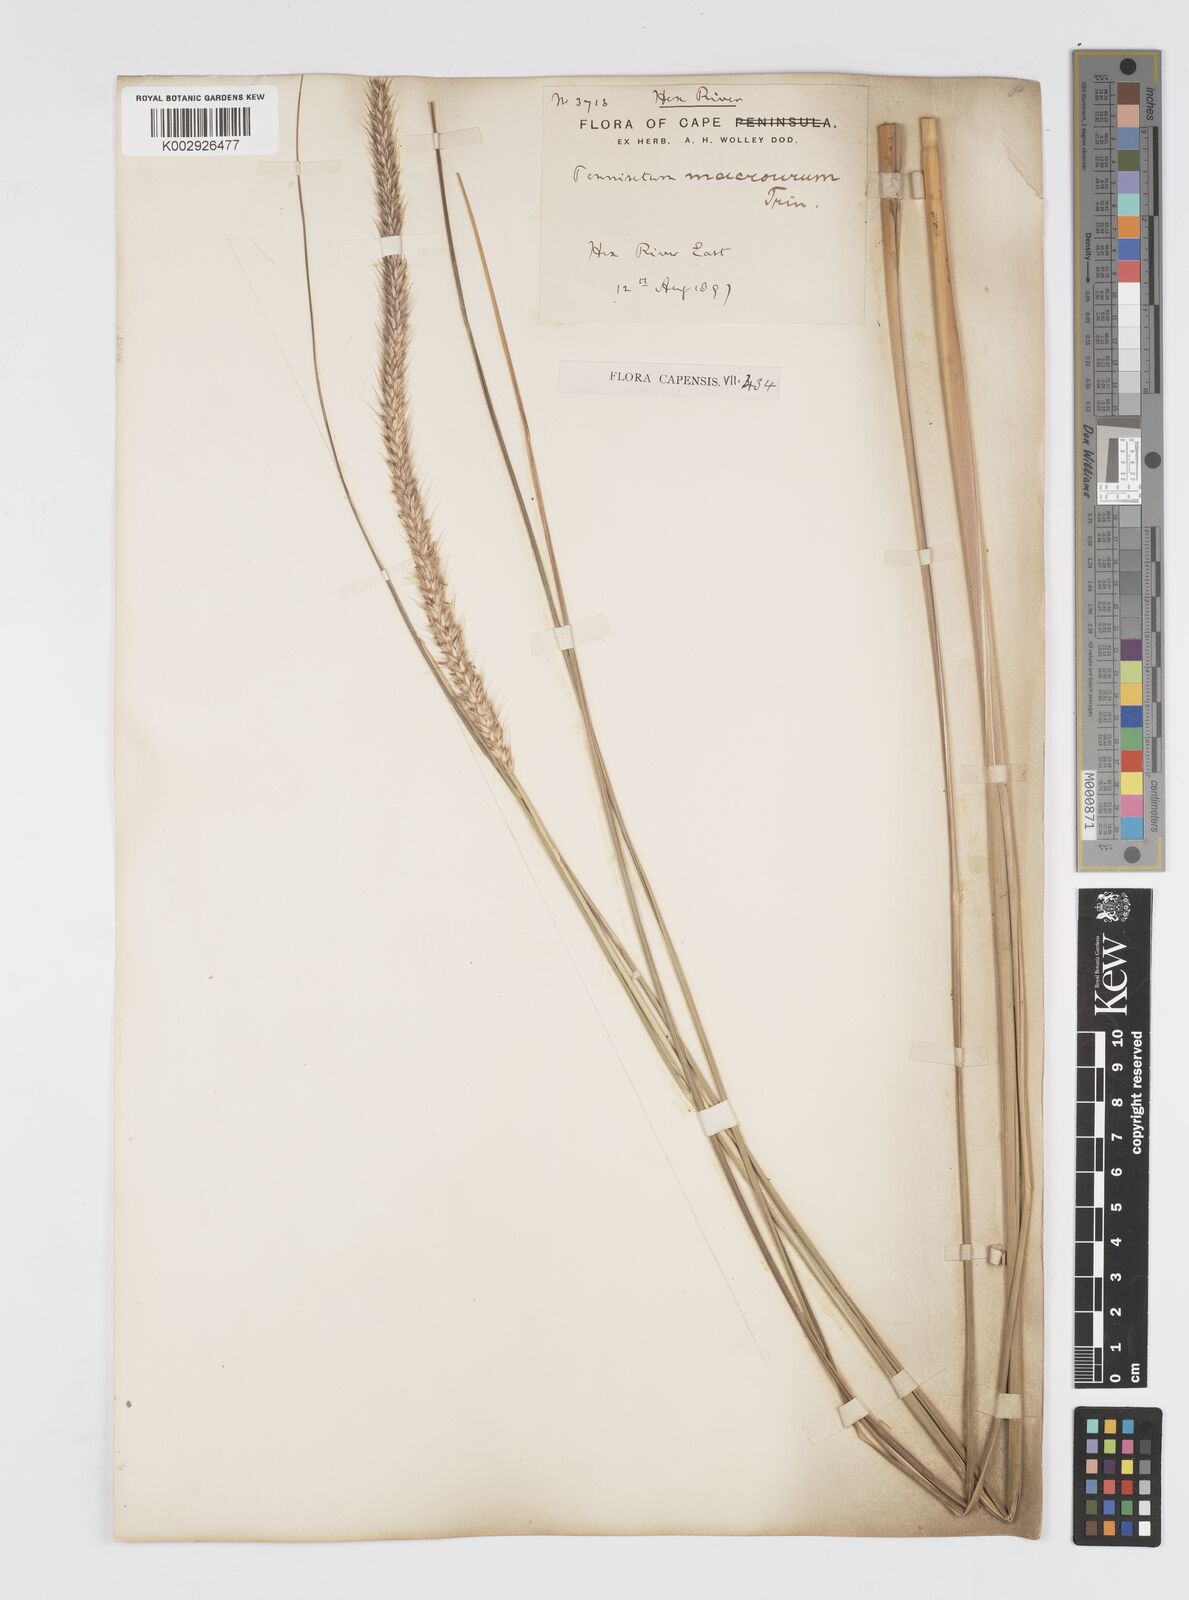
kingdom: Plantae
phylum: Tracheophyta
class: Liliopsida
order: Poales
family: Poaceae
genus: Cenchrus
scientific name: Cenchrus caudatus
